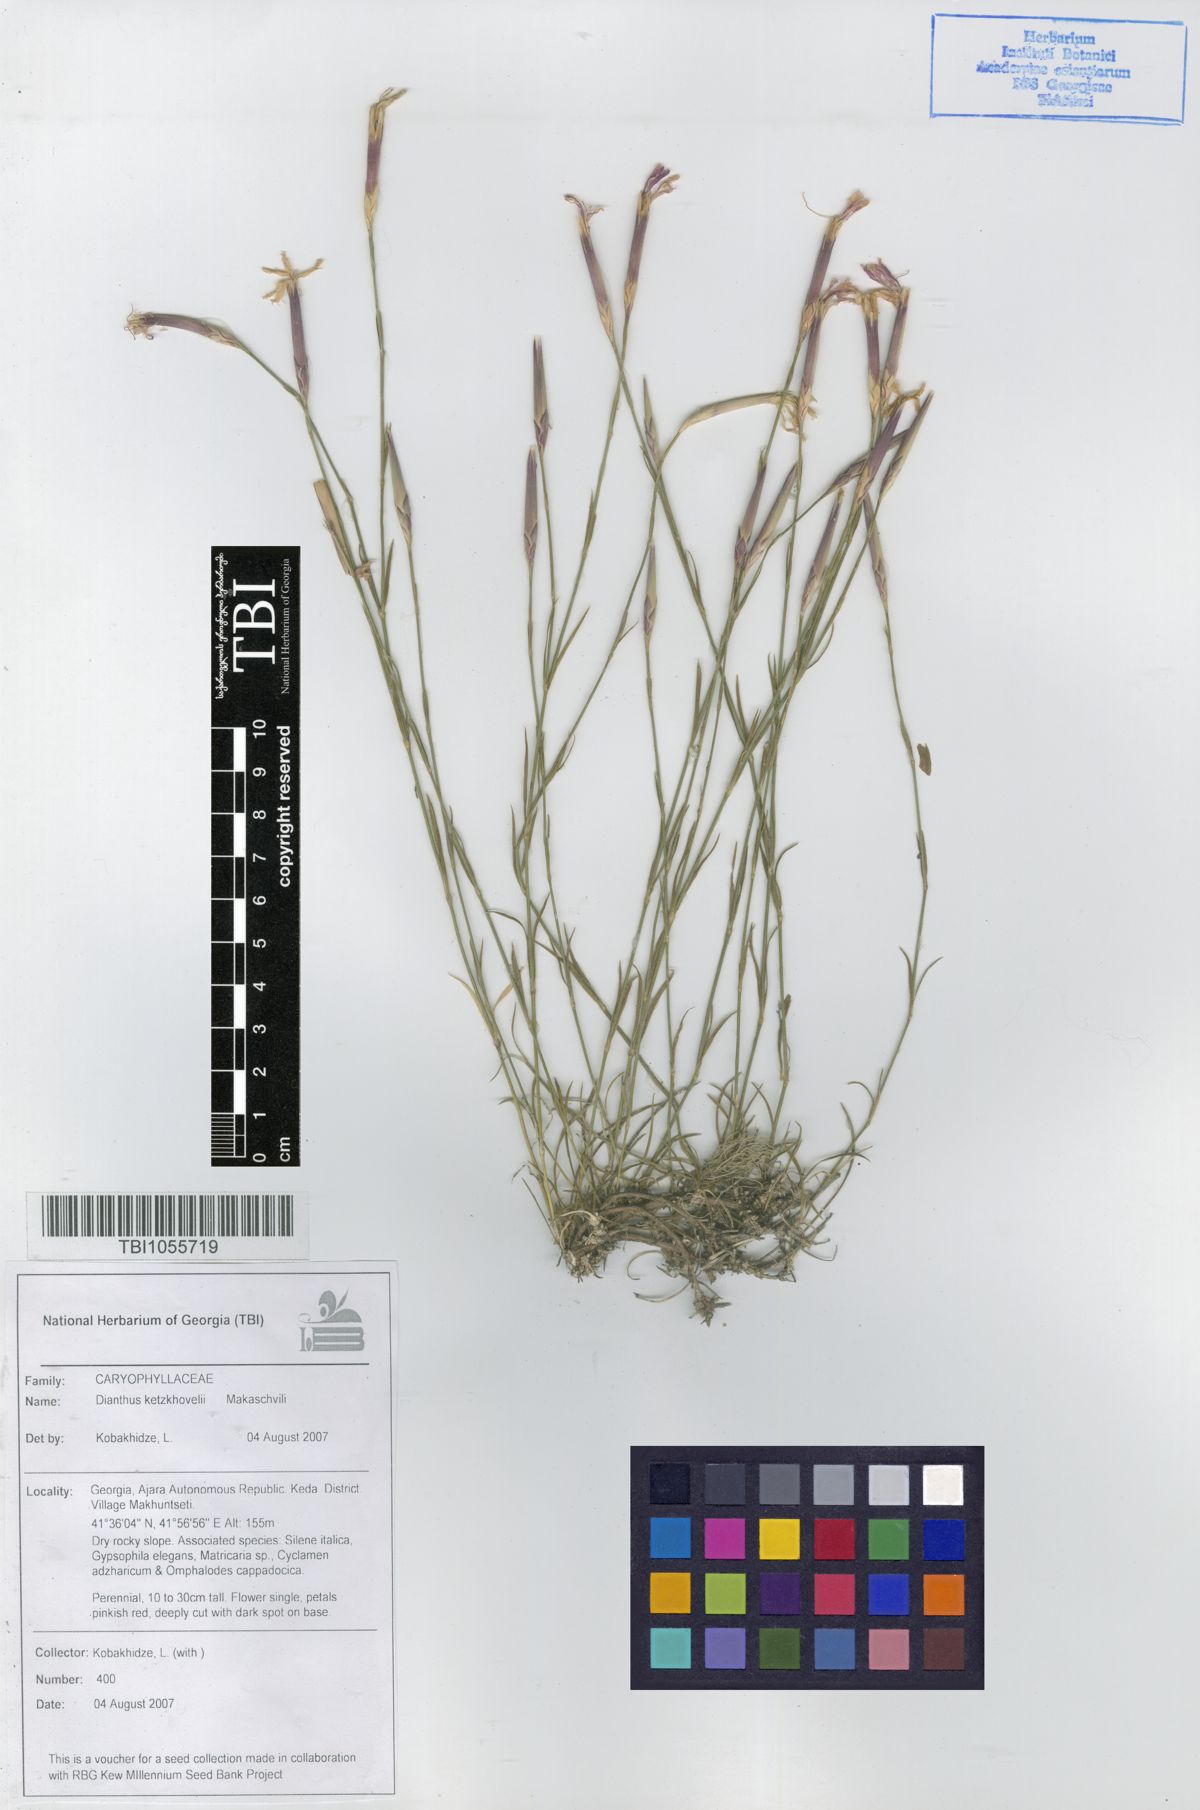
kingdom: Plantae
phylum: Tracheophyta
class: Magnoliopsida
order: Caryophyllales
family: Caryophyllaceae
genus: Dianthus
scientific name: Dianthus orientalis
